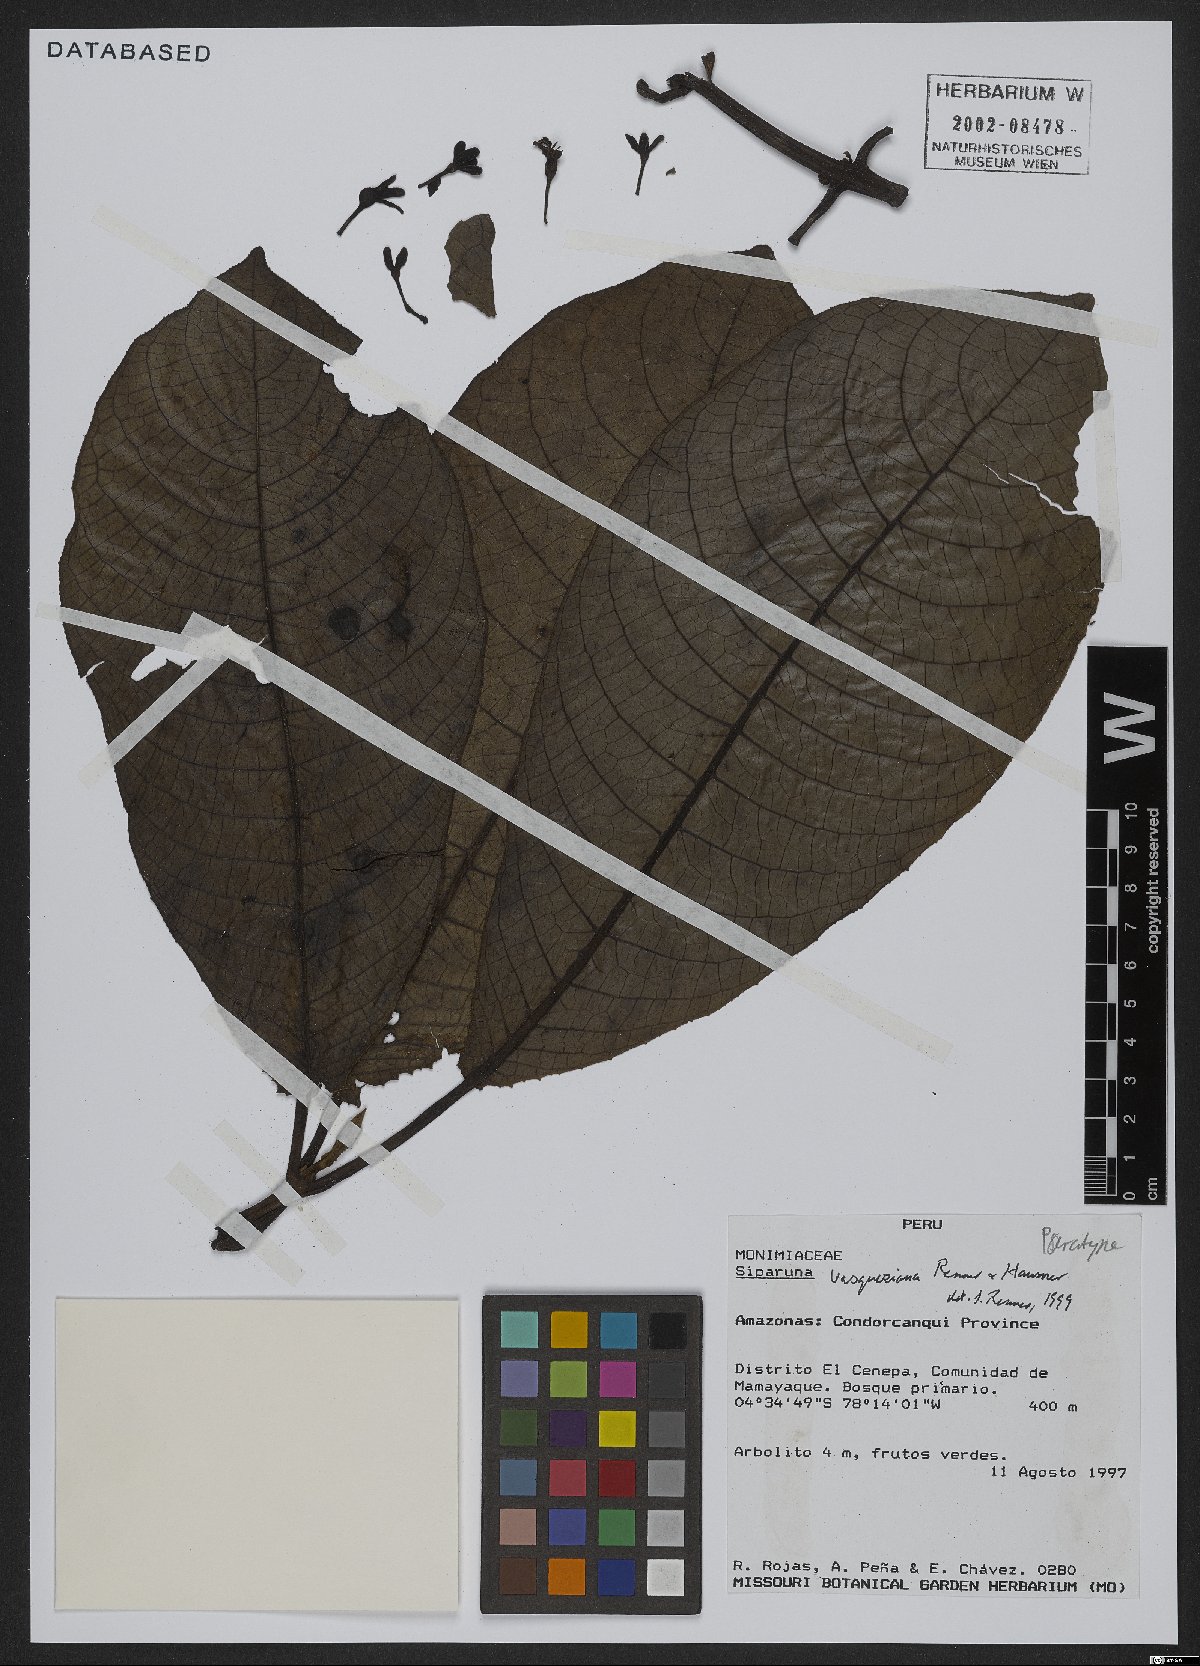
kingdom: Plantae
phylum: Tracheophyta
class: Magnoliopsida
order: Laurales
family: Siparunaceae
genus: Siparuna
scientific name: Siparuna vasqueziana
